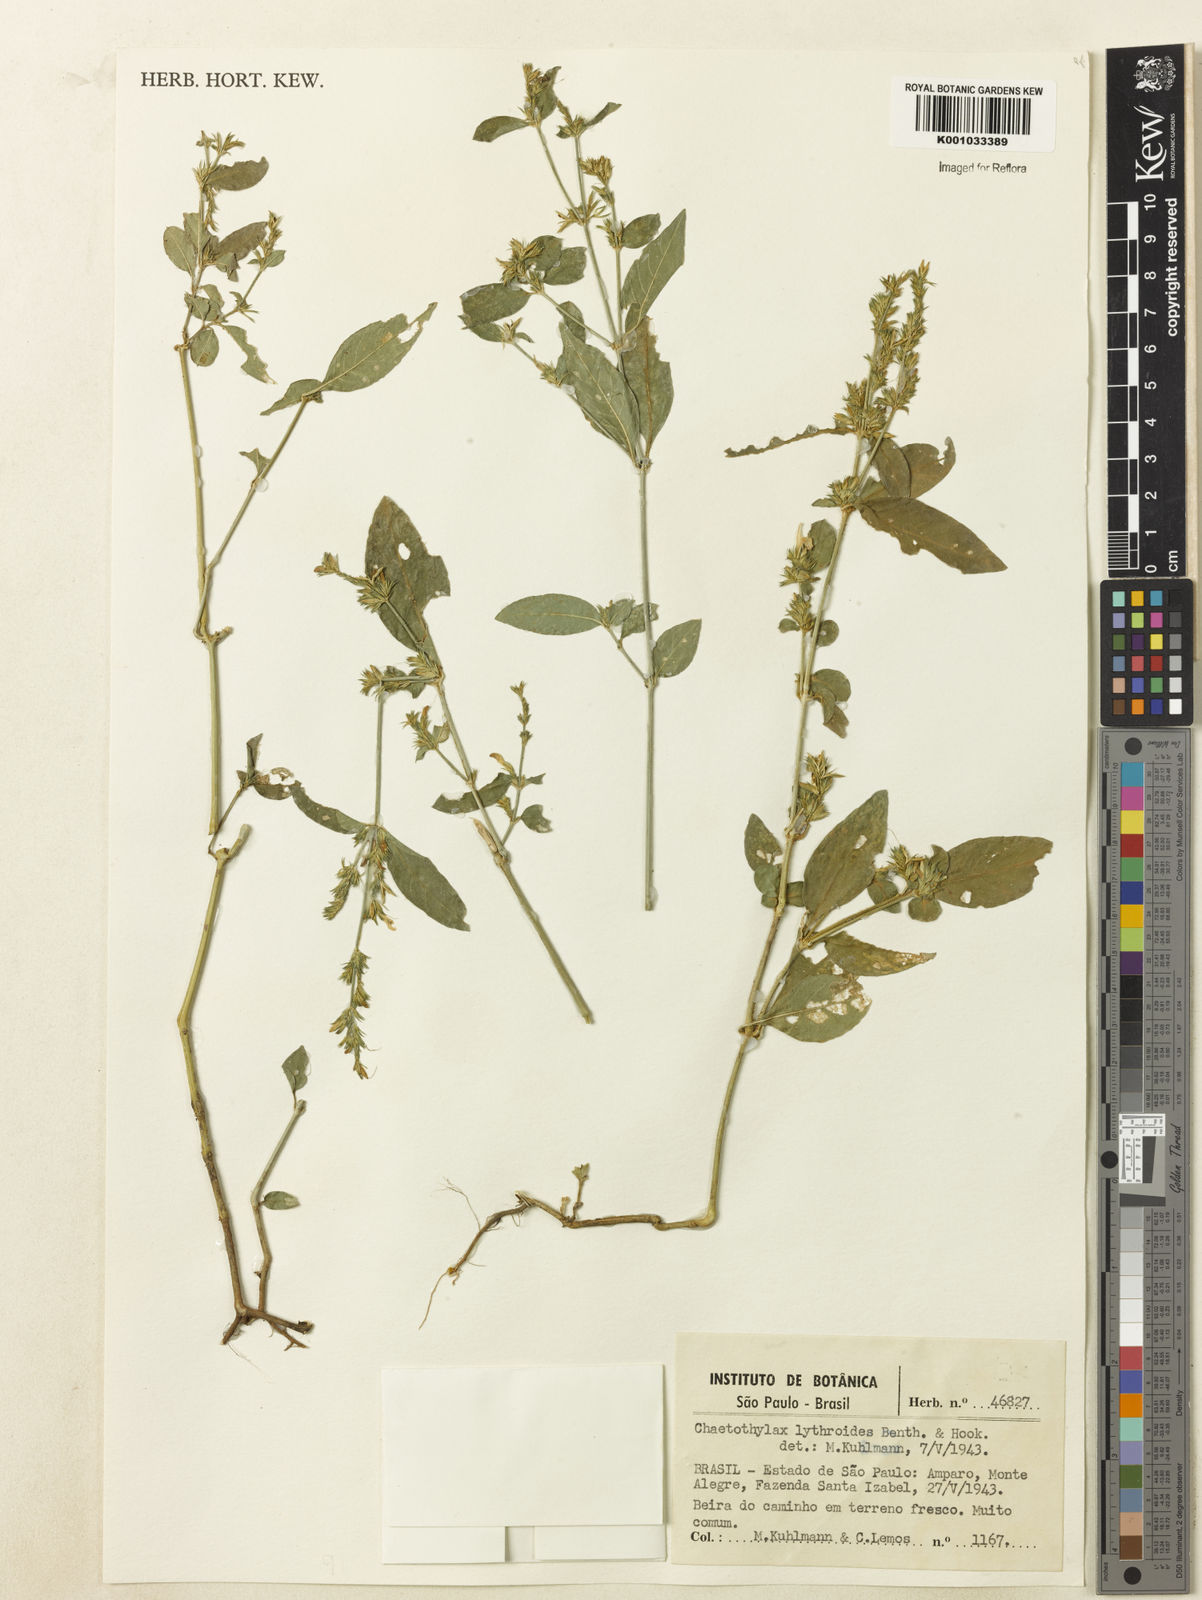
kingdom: Plantae
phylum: Tracheophyta
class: Magnoliopsida
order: Lamiales
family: Acanthaceae
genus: Justicia
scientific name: Justicia lythroides
